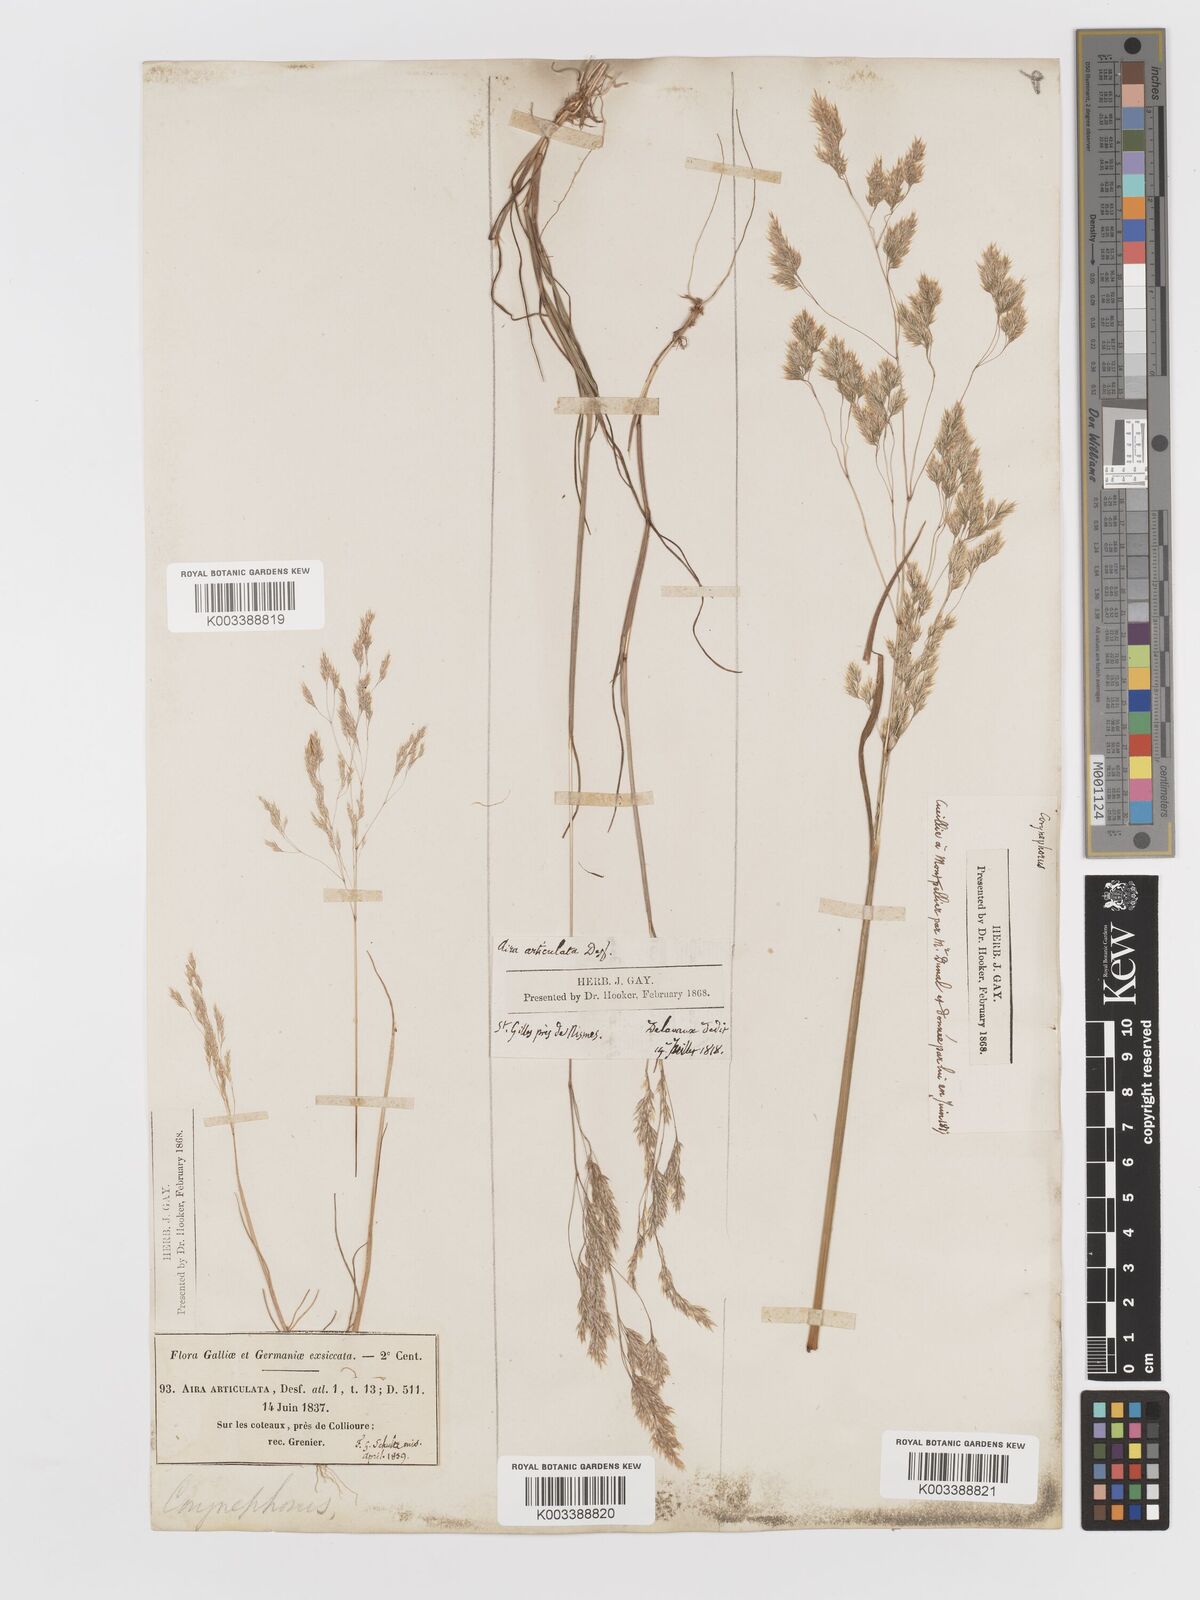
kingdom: Plantae
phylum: Tracheophyta
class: Liliopsida
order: Poales
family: Poaceae
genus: Corynephorus
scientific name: Corynephorus divaricatus
